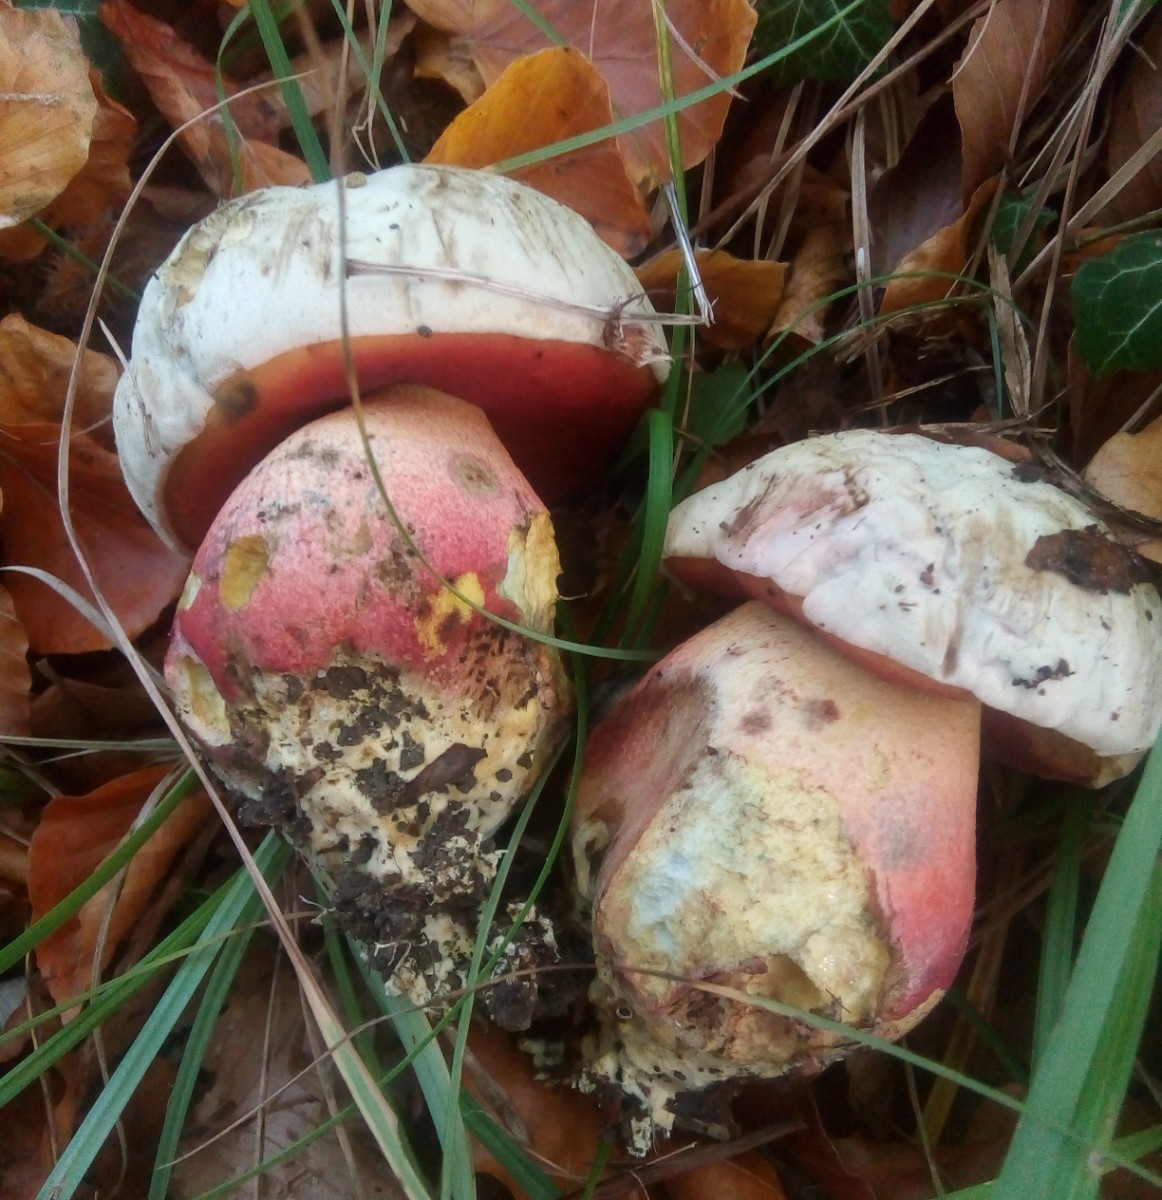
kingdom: Fungi
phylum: Basidiomycota
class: Agaricomycetes
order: Boletales
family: Boletaceae
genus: Rubroboletus
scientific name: Rubroboletus satanas
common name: Satans rørhat
